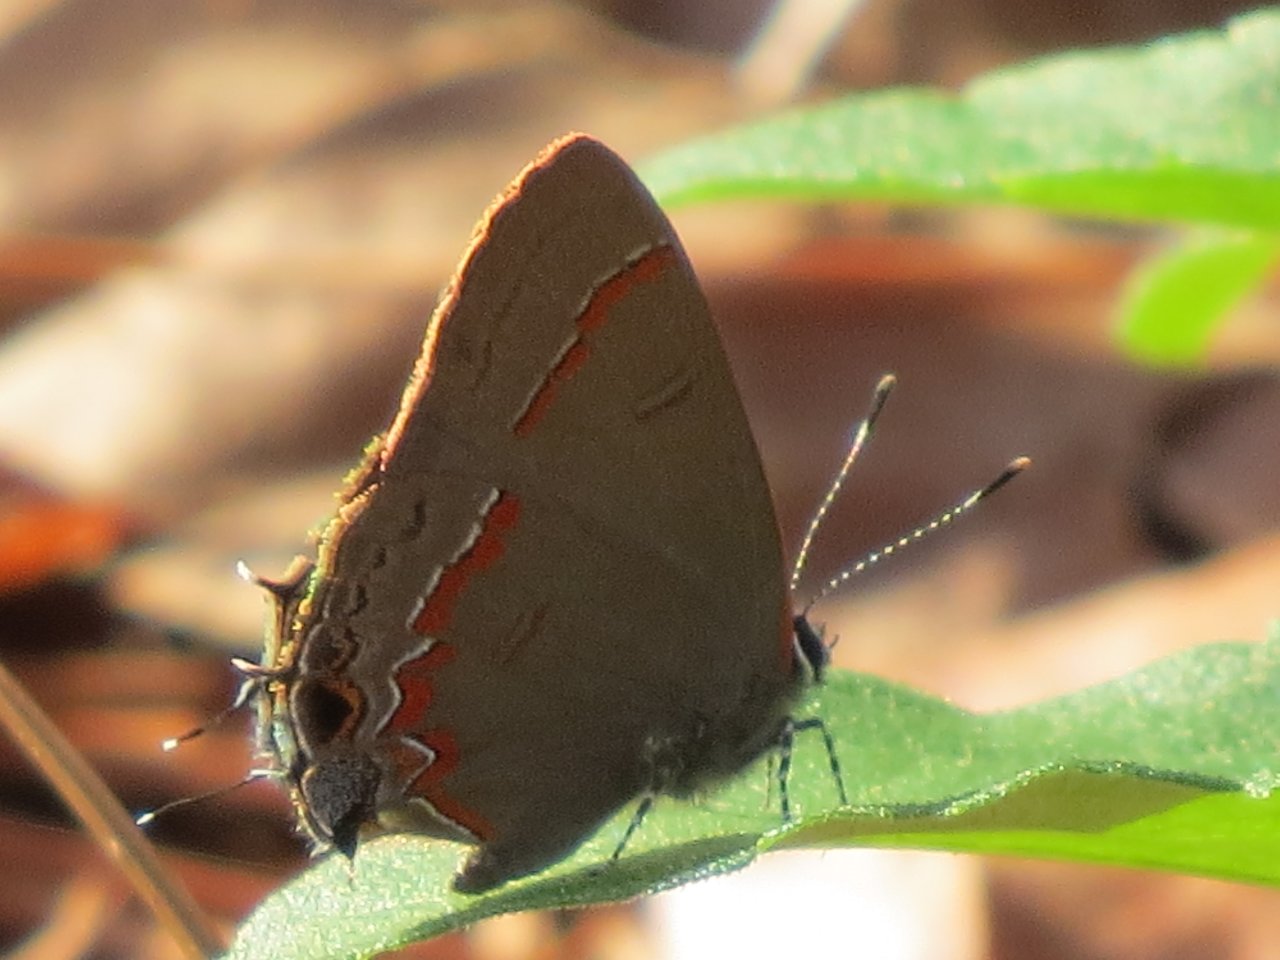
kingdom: Animalia
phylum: Arthropoda
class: Insecta
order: Lepidoptera
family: Lycaenidae
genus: Calycopis
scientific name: Calycopis cecrops
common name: Red-banded Hairstreak
